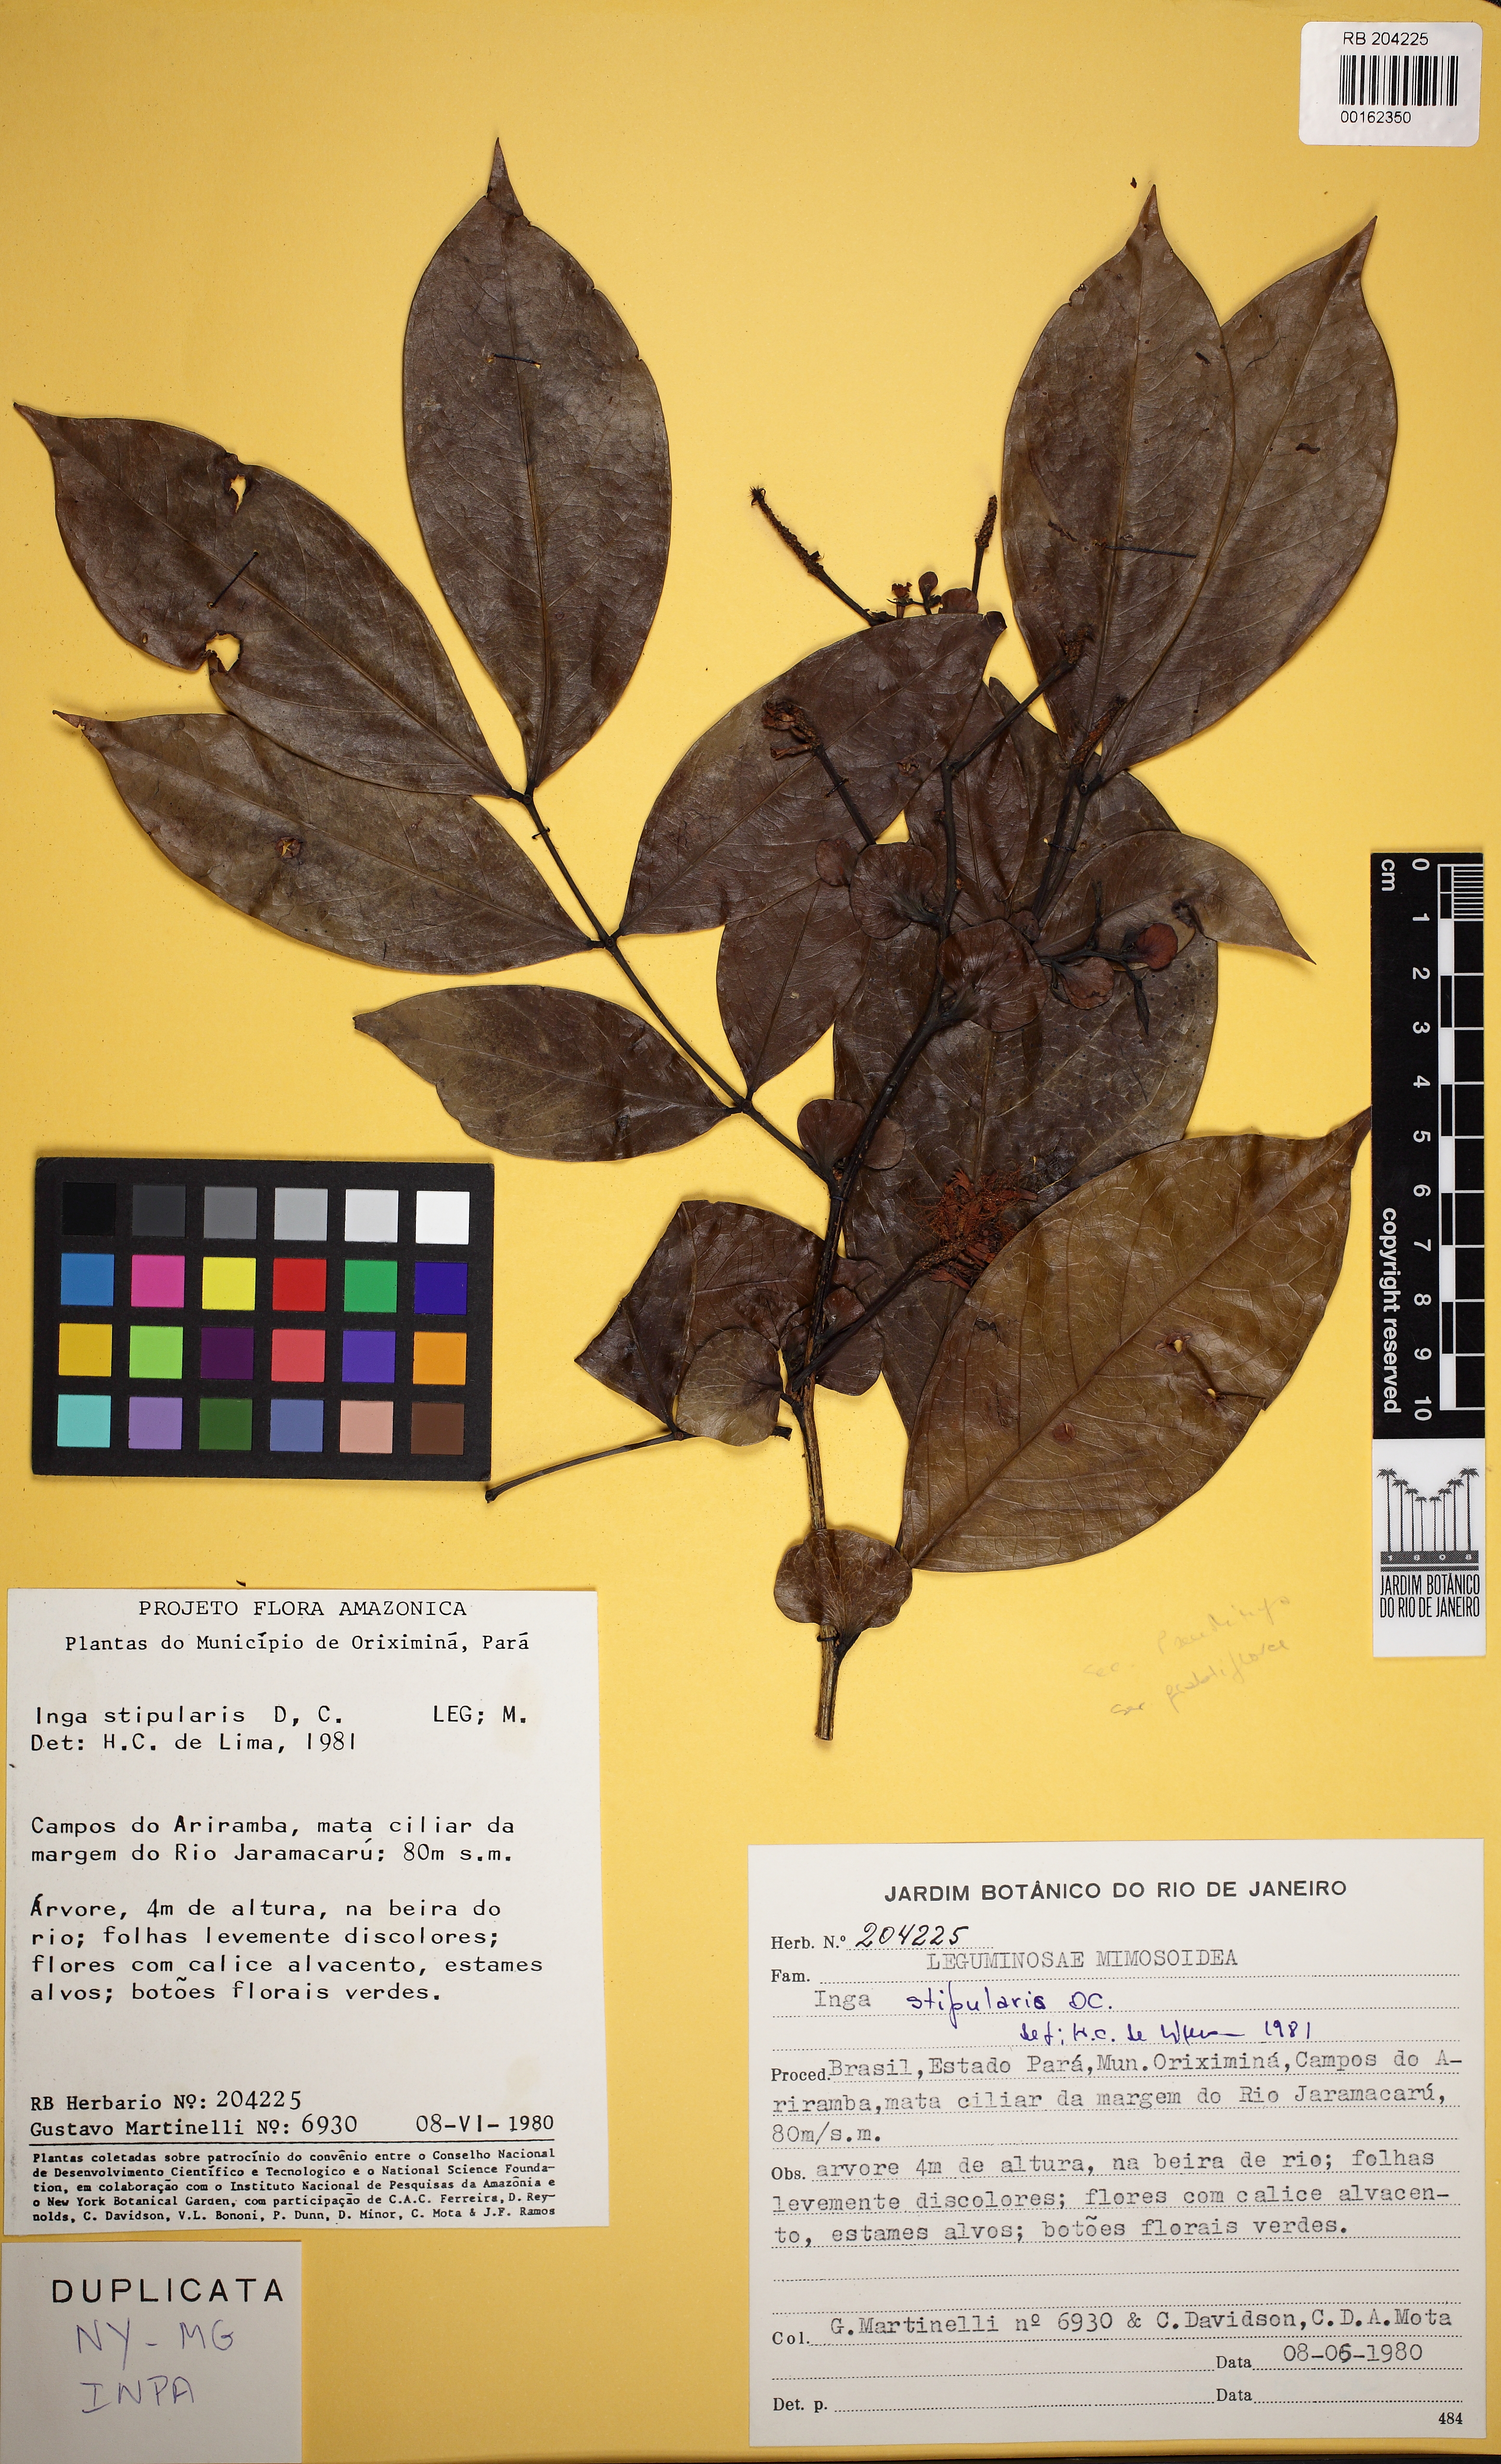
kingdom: Plantae
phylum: Tracheophyta
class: Magnoliopsida
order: Fabales
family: Fabaceae
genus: Inga
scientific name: Inga stipularis
